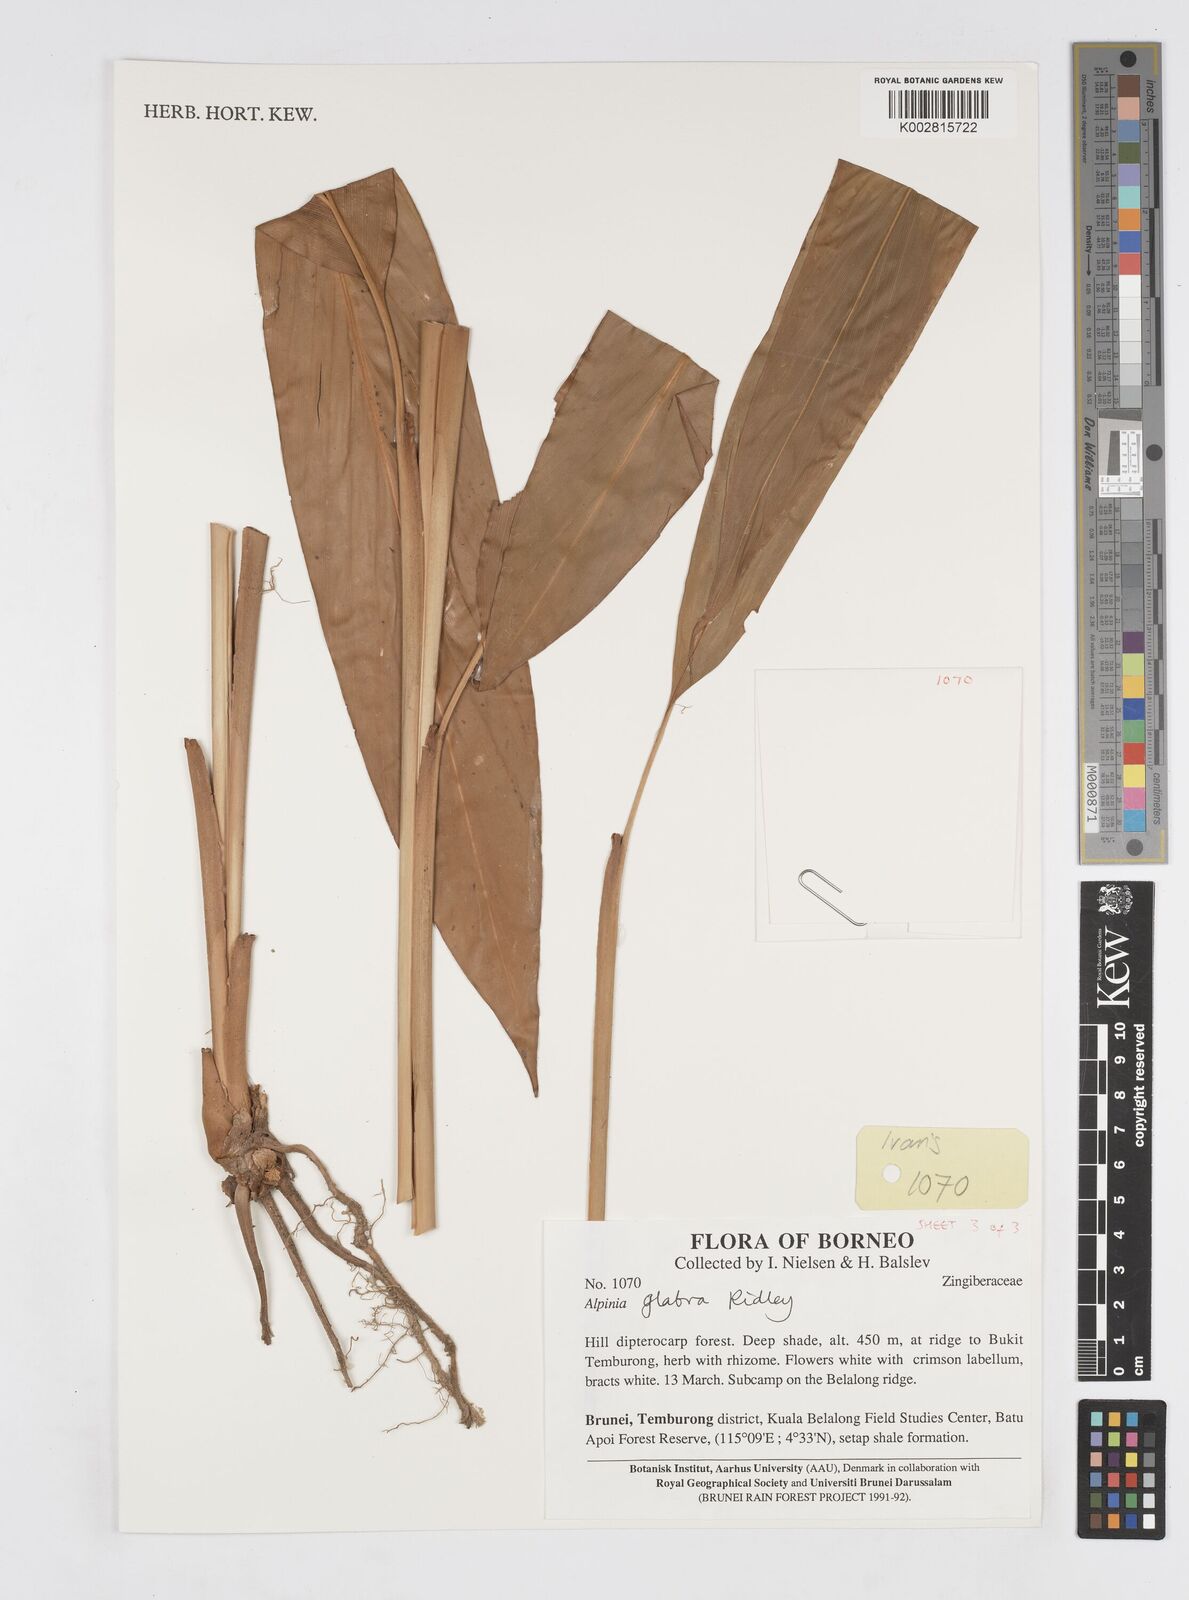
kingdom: Plantae
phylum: Tracheophyta
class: Liliopsida
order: Zingiberales
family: Zingiberaceae
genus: Alpinia
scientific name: Alpinia glabra
